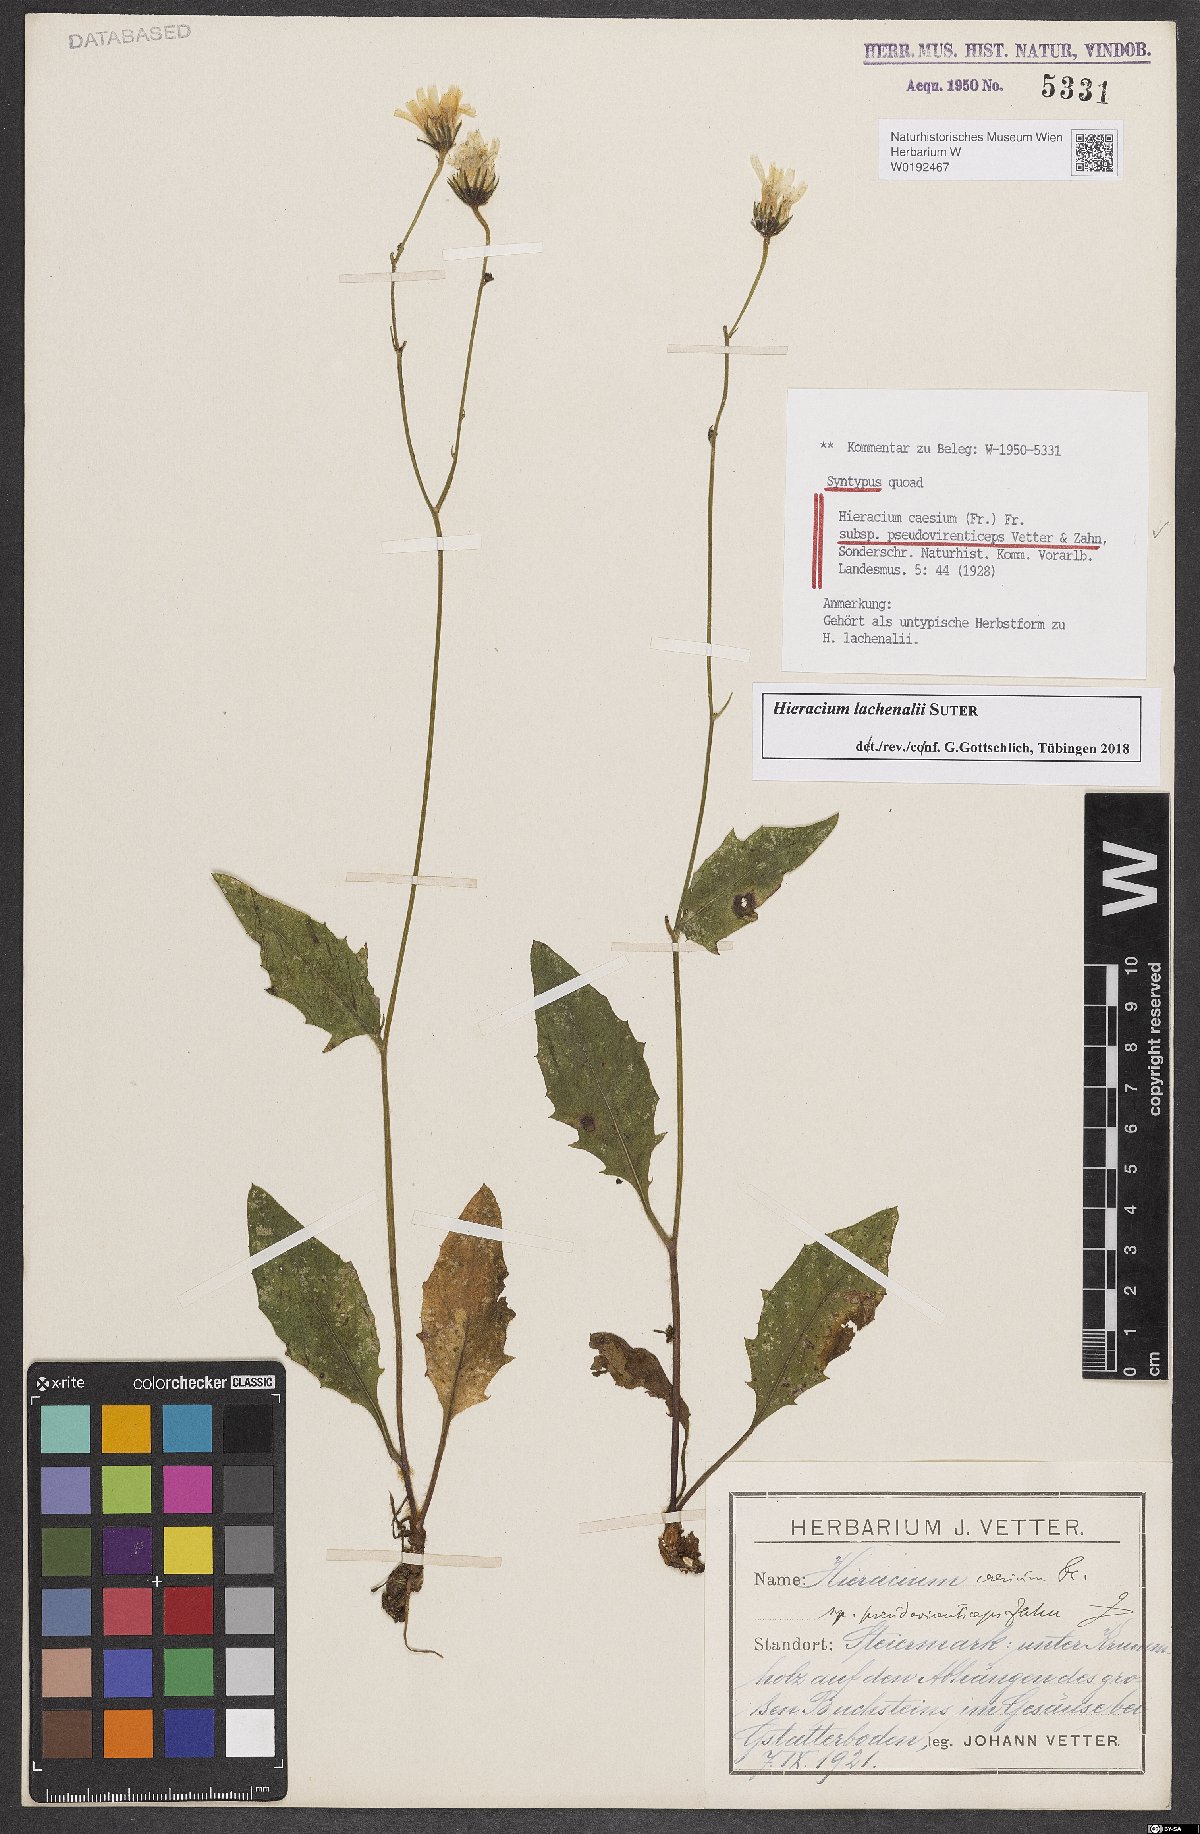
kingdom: Plantae
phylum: Tracheophyta
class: Magnoliopsida
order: Asterales
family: Asteraceae
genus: Hieracium
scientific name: Hieracium caesium
